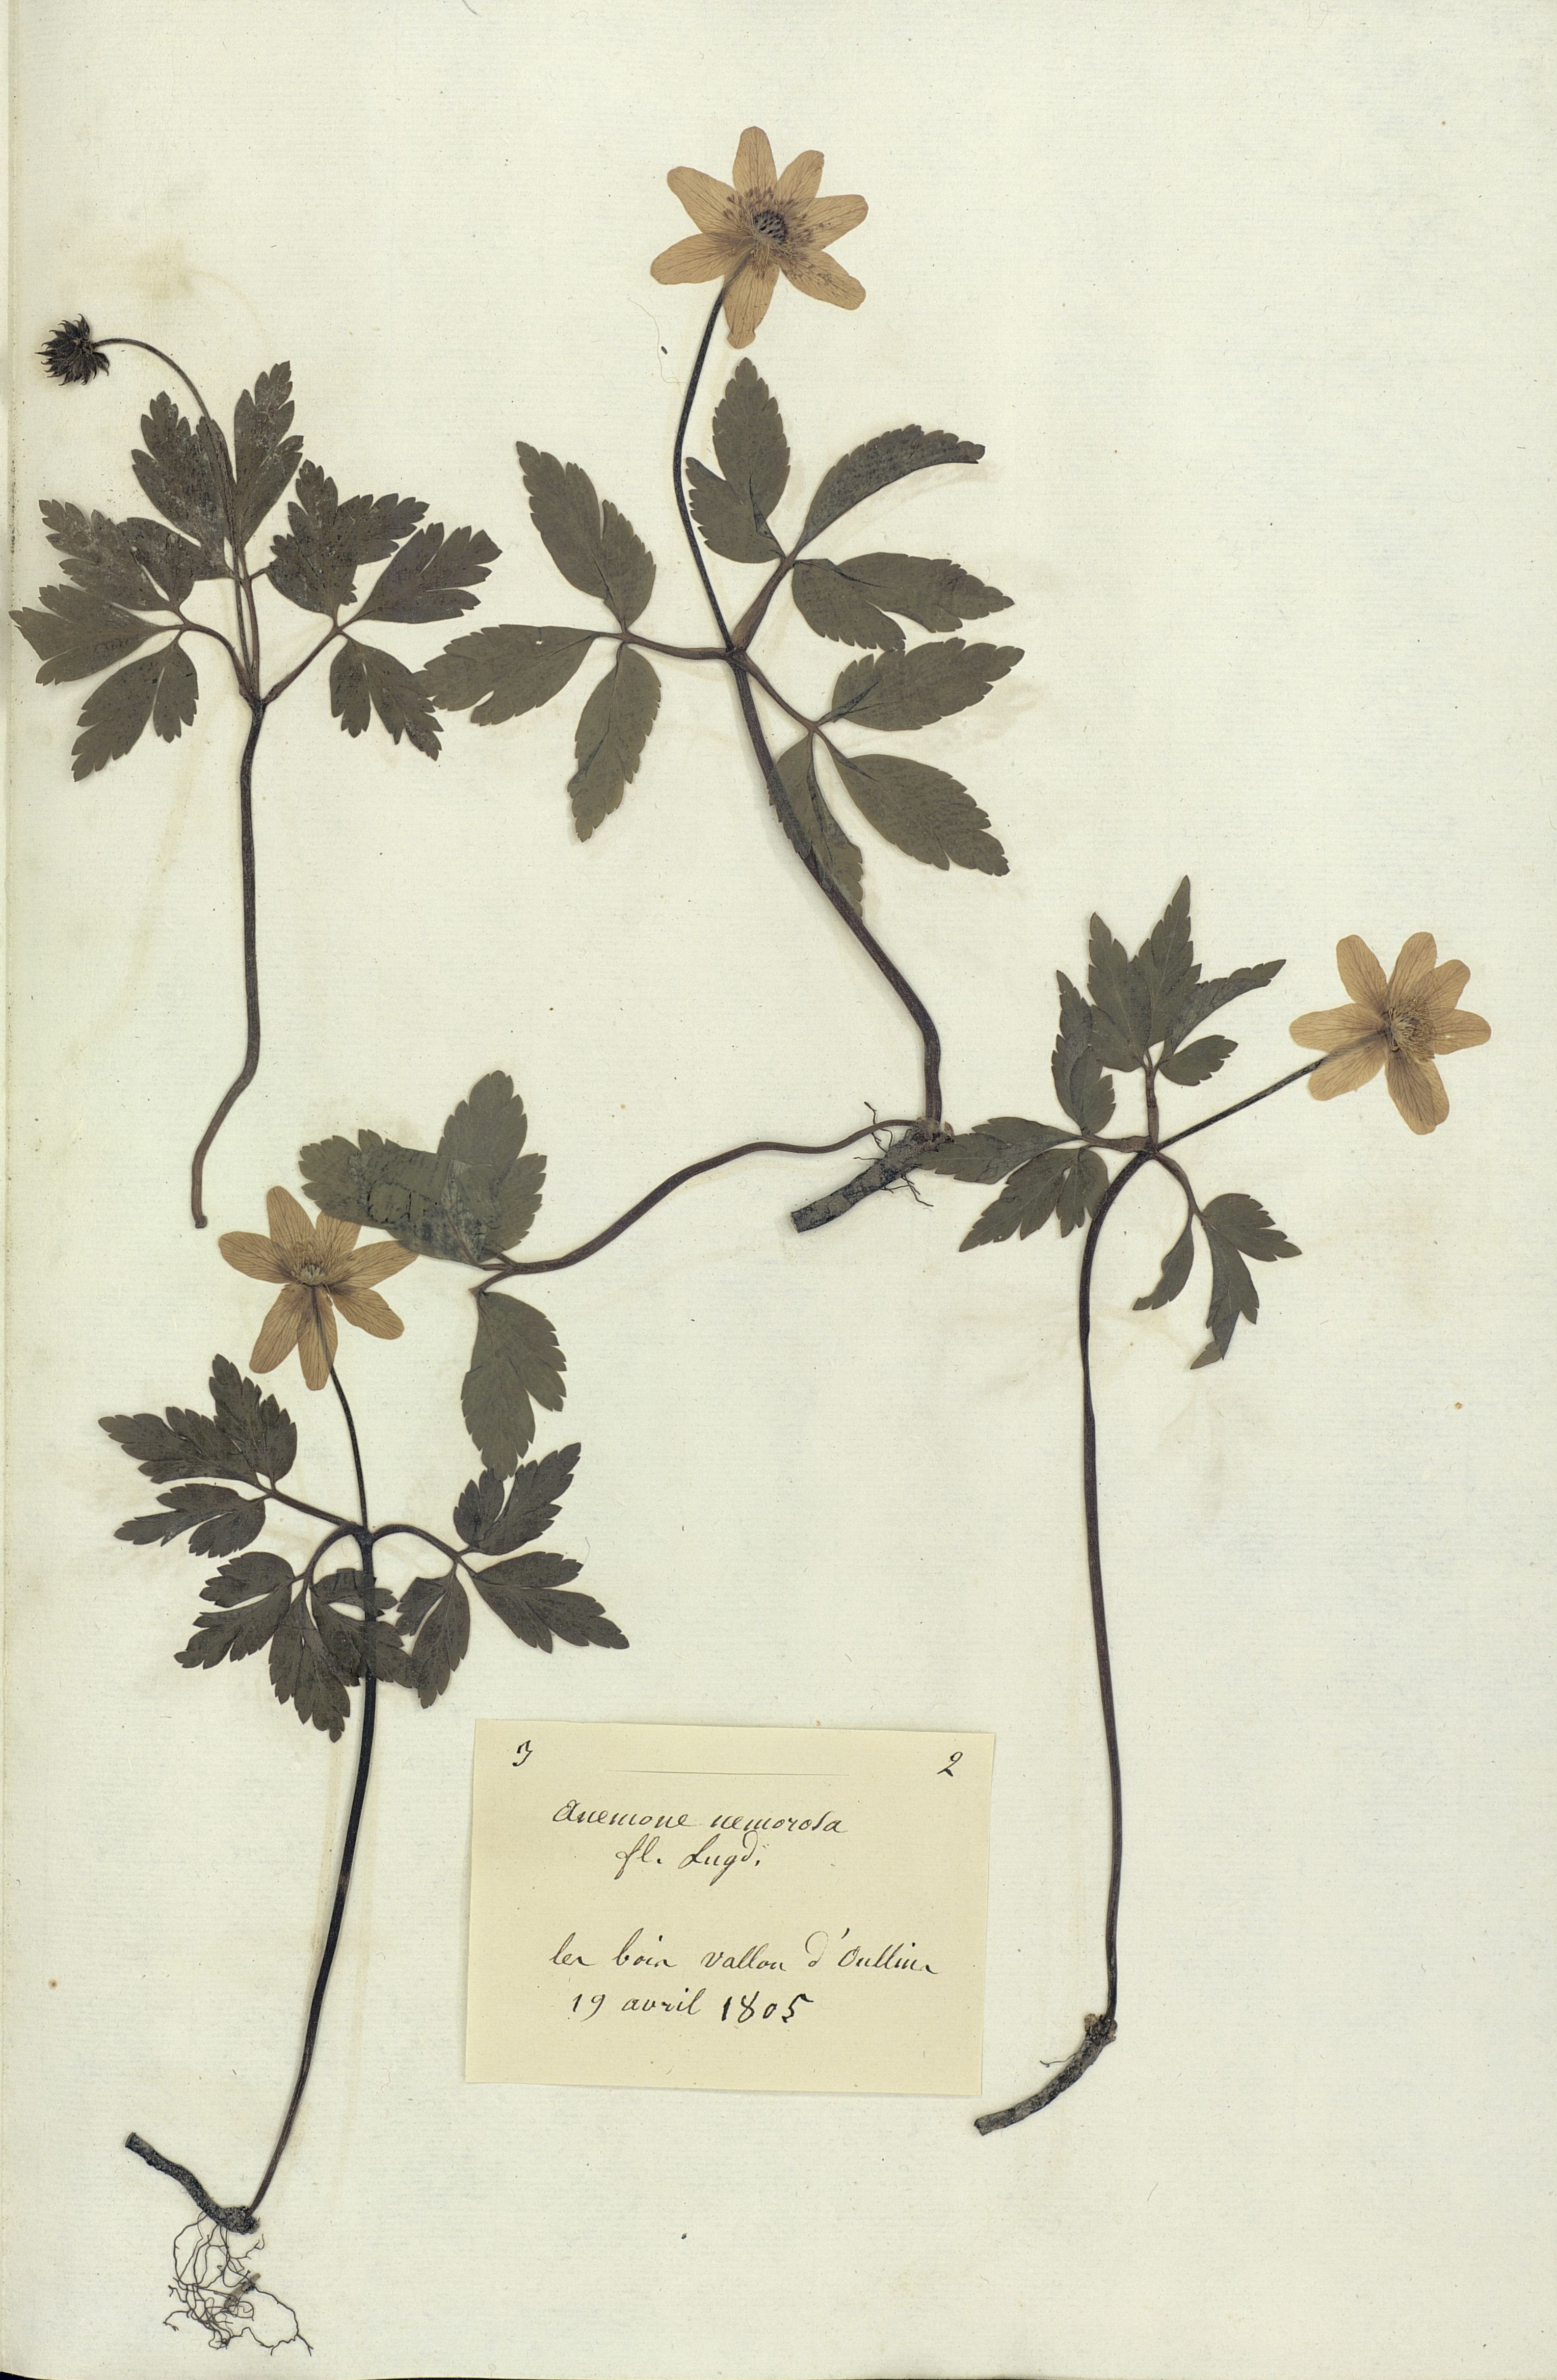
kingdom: Plantae
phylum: Tracheophyta
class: Magnoliopsida
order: Ranunculales
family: Ranunculaceae
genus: Anemone
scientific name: Anemone nemorosa
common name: Wood anemone
